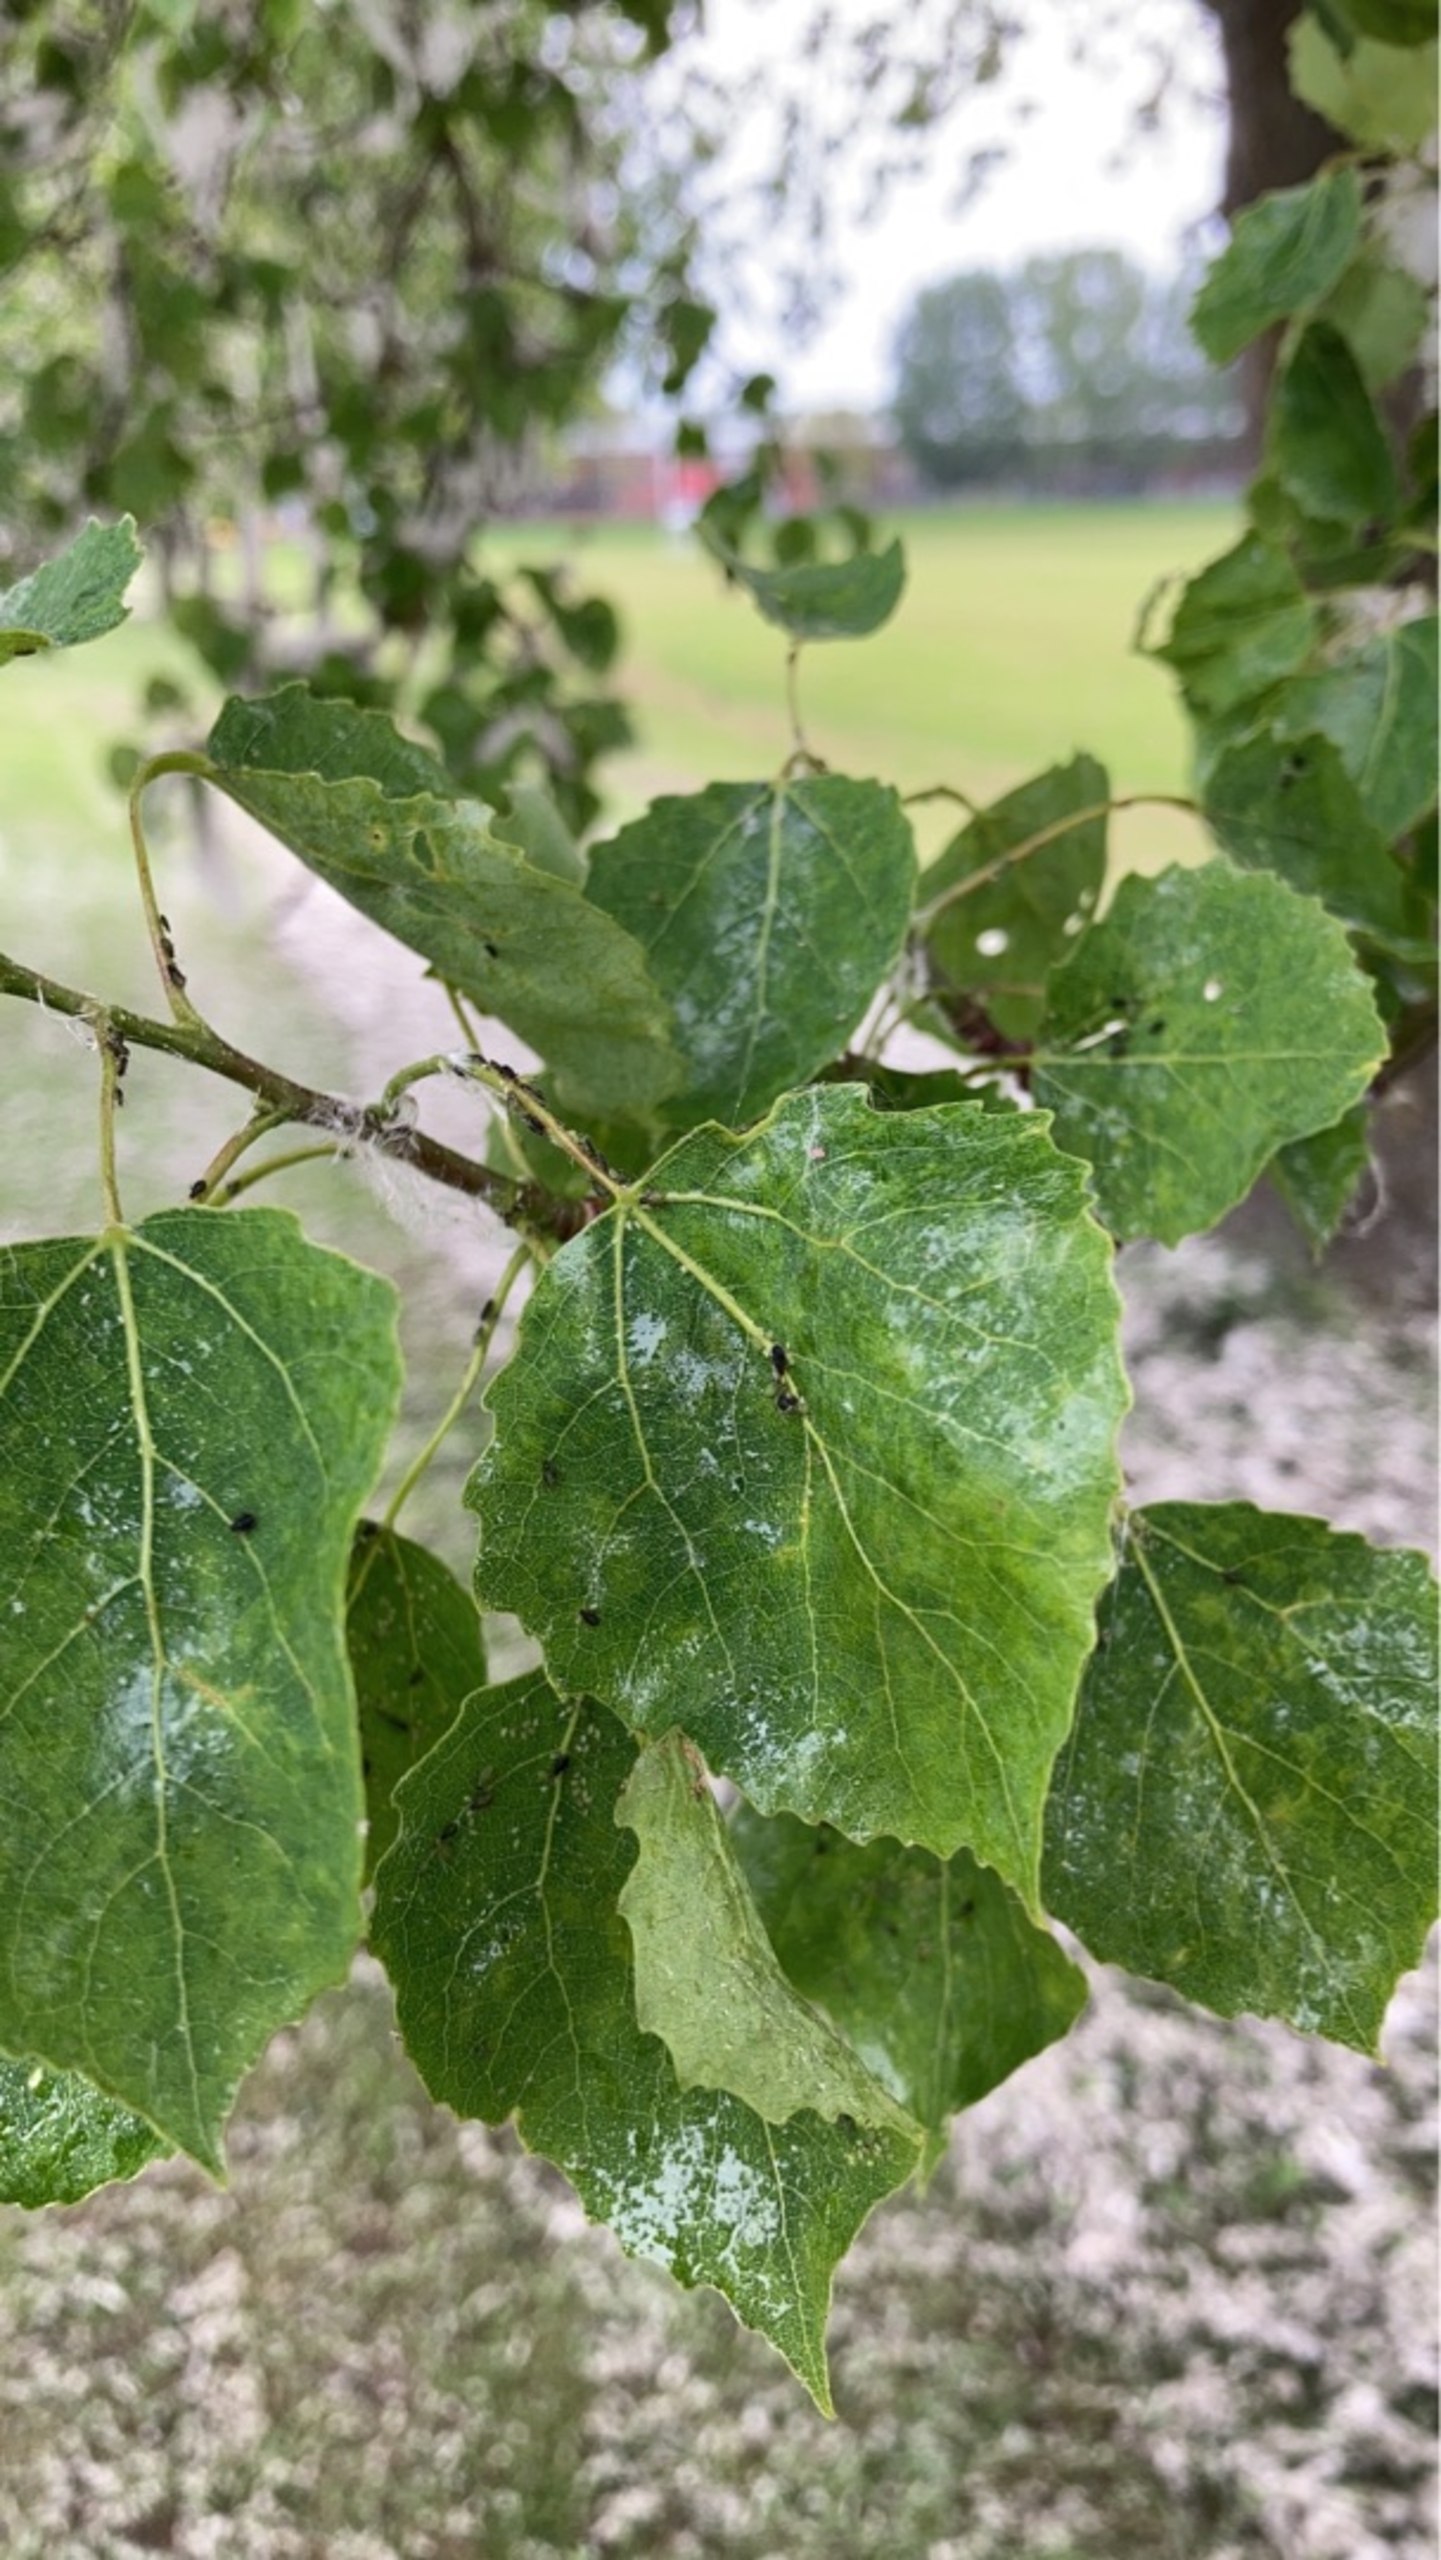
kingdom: Plantae
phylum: Tracheophyta
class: Magnoliopsida
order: Malpighiales
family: Salicaceae
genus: Populus
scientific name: Populus tremula
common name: Bævreasp
